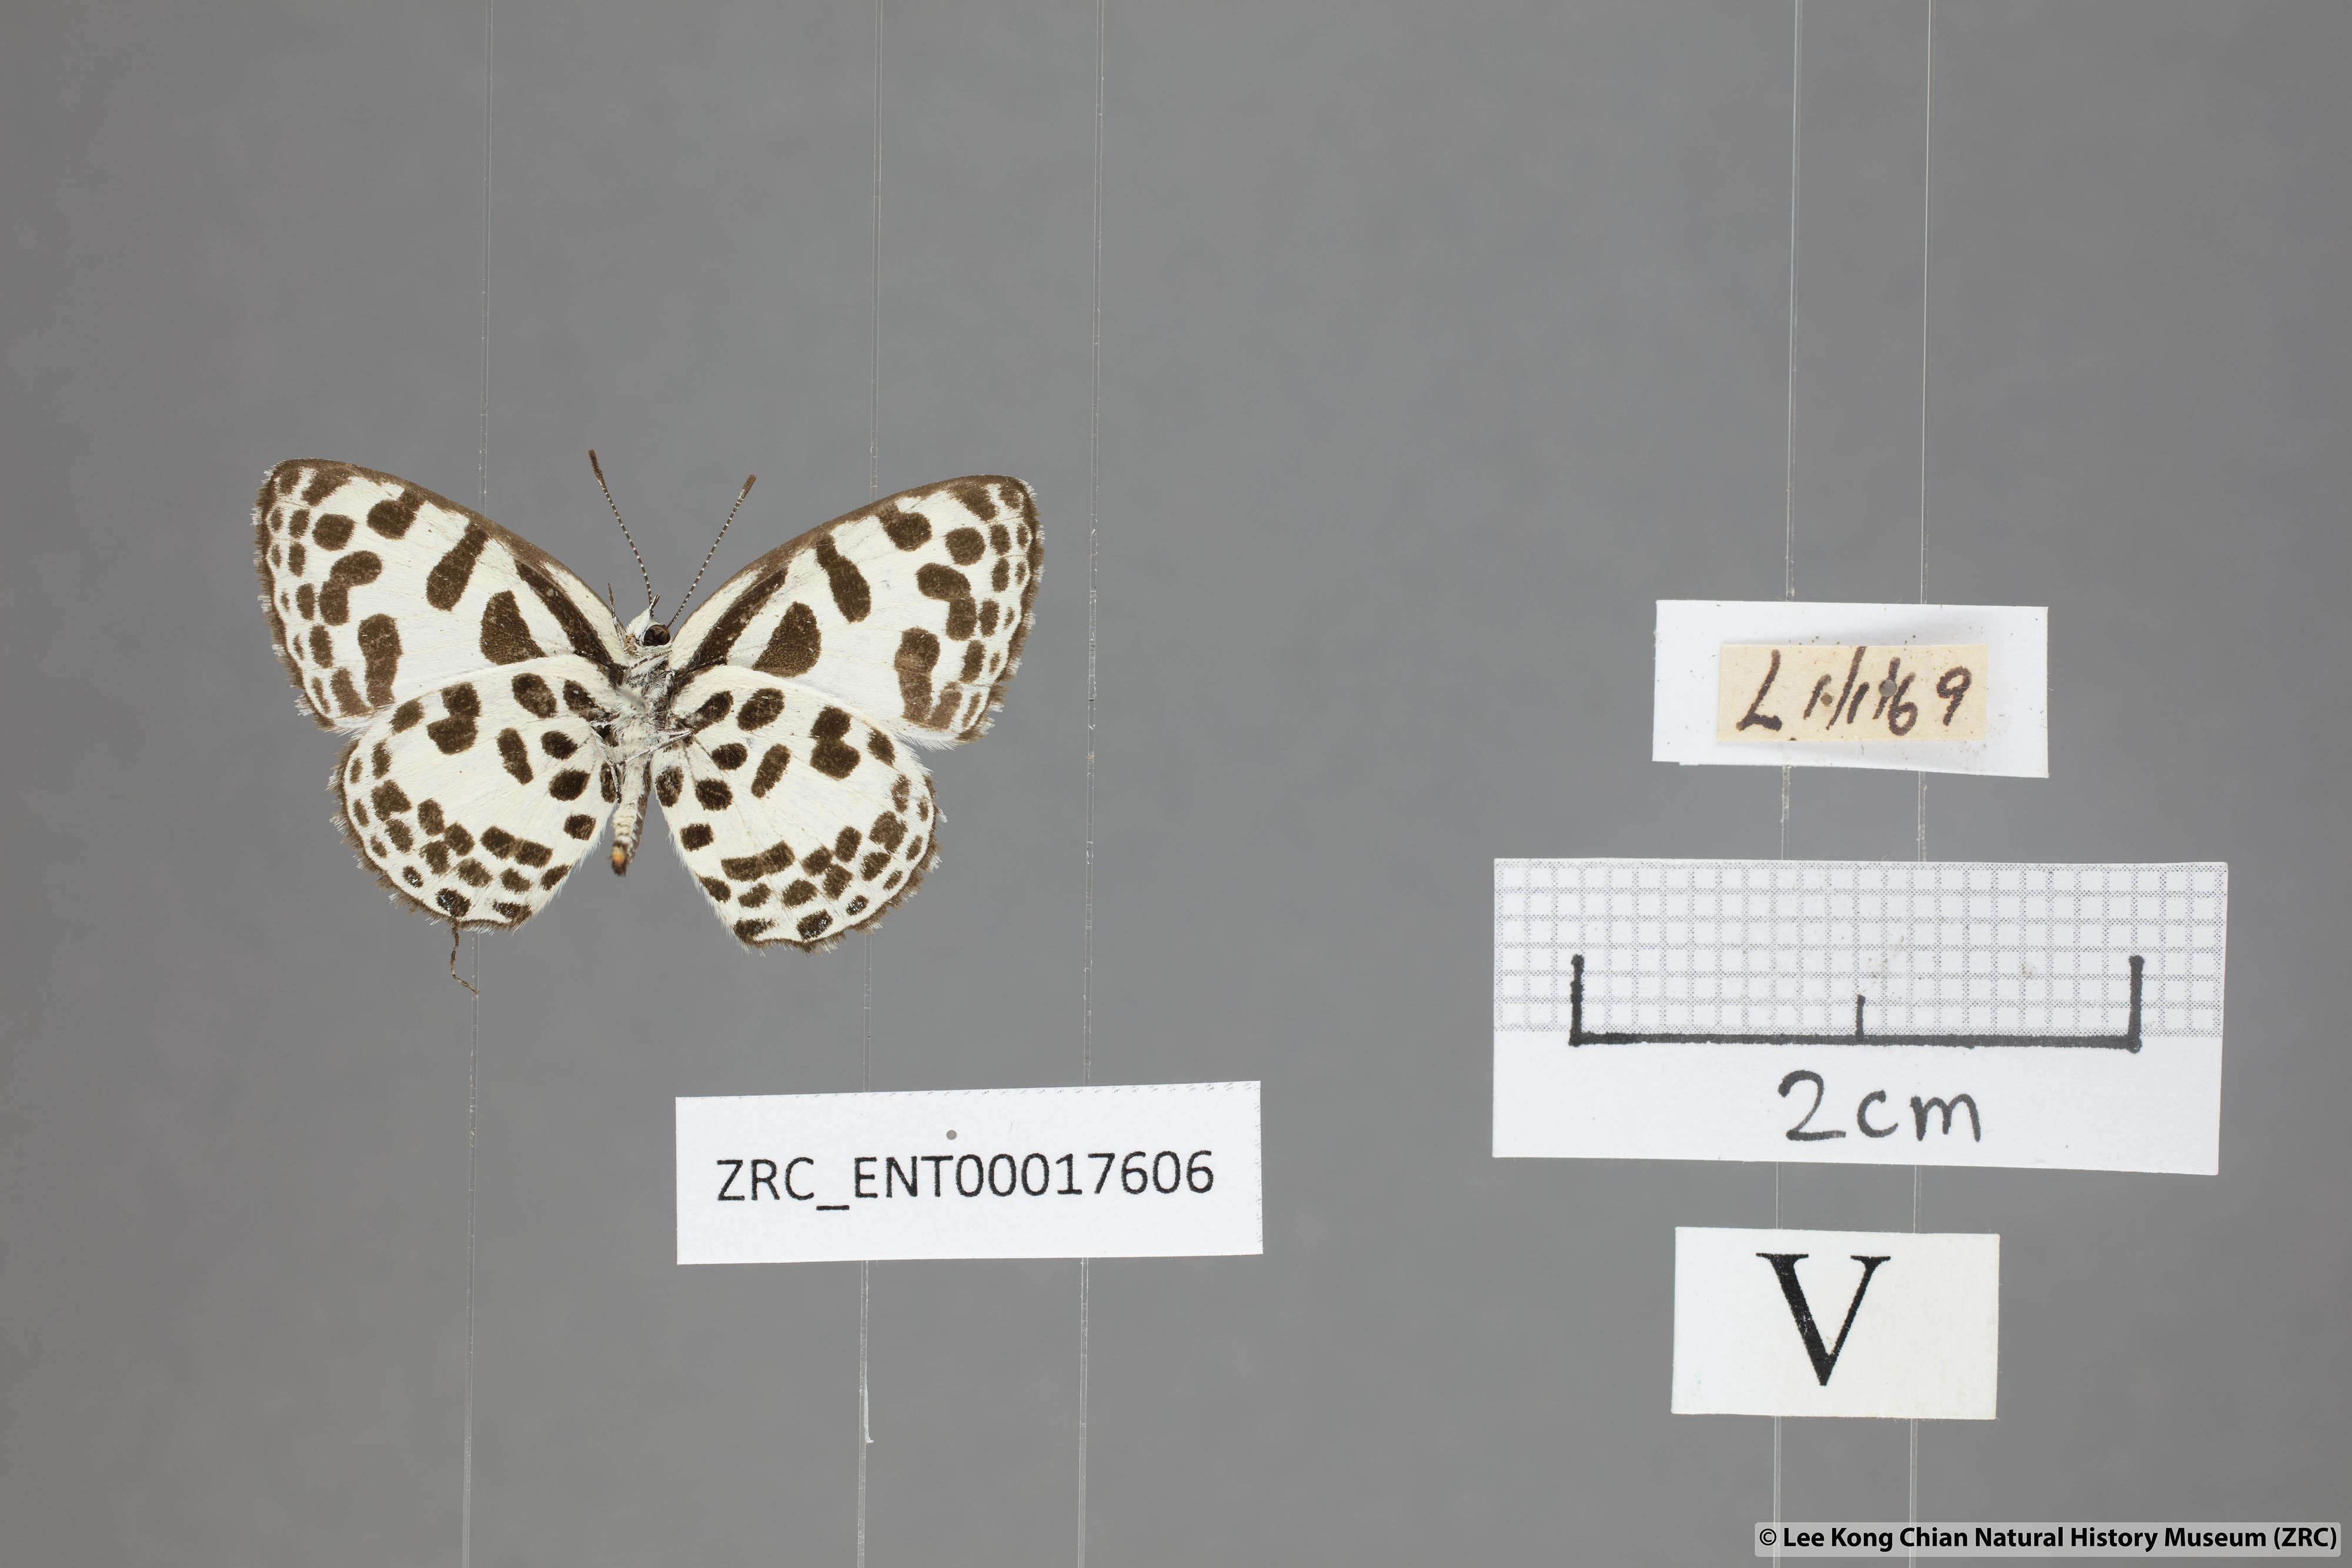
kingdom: Animalia
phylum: Arthropoda
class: Insecta
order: Lepidoptera
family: Lycaenidae
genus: Castalius
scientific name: Castalius rosimon
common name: Common pierrot
